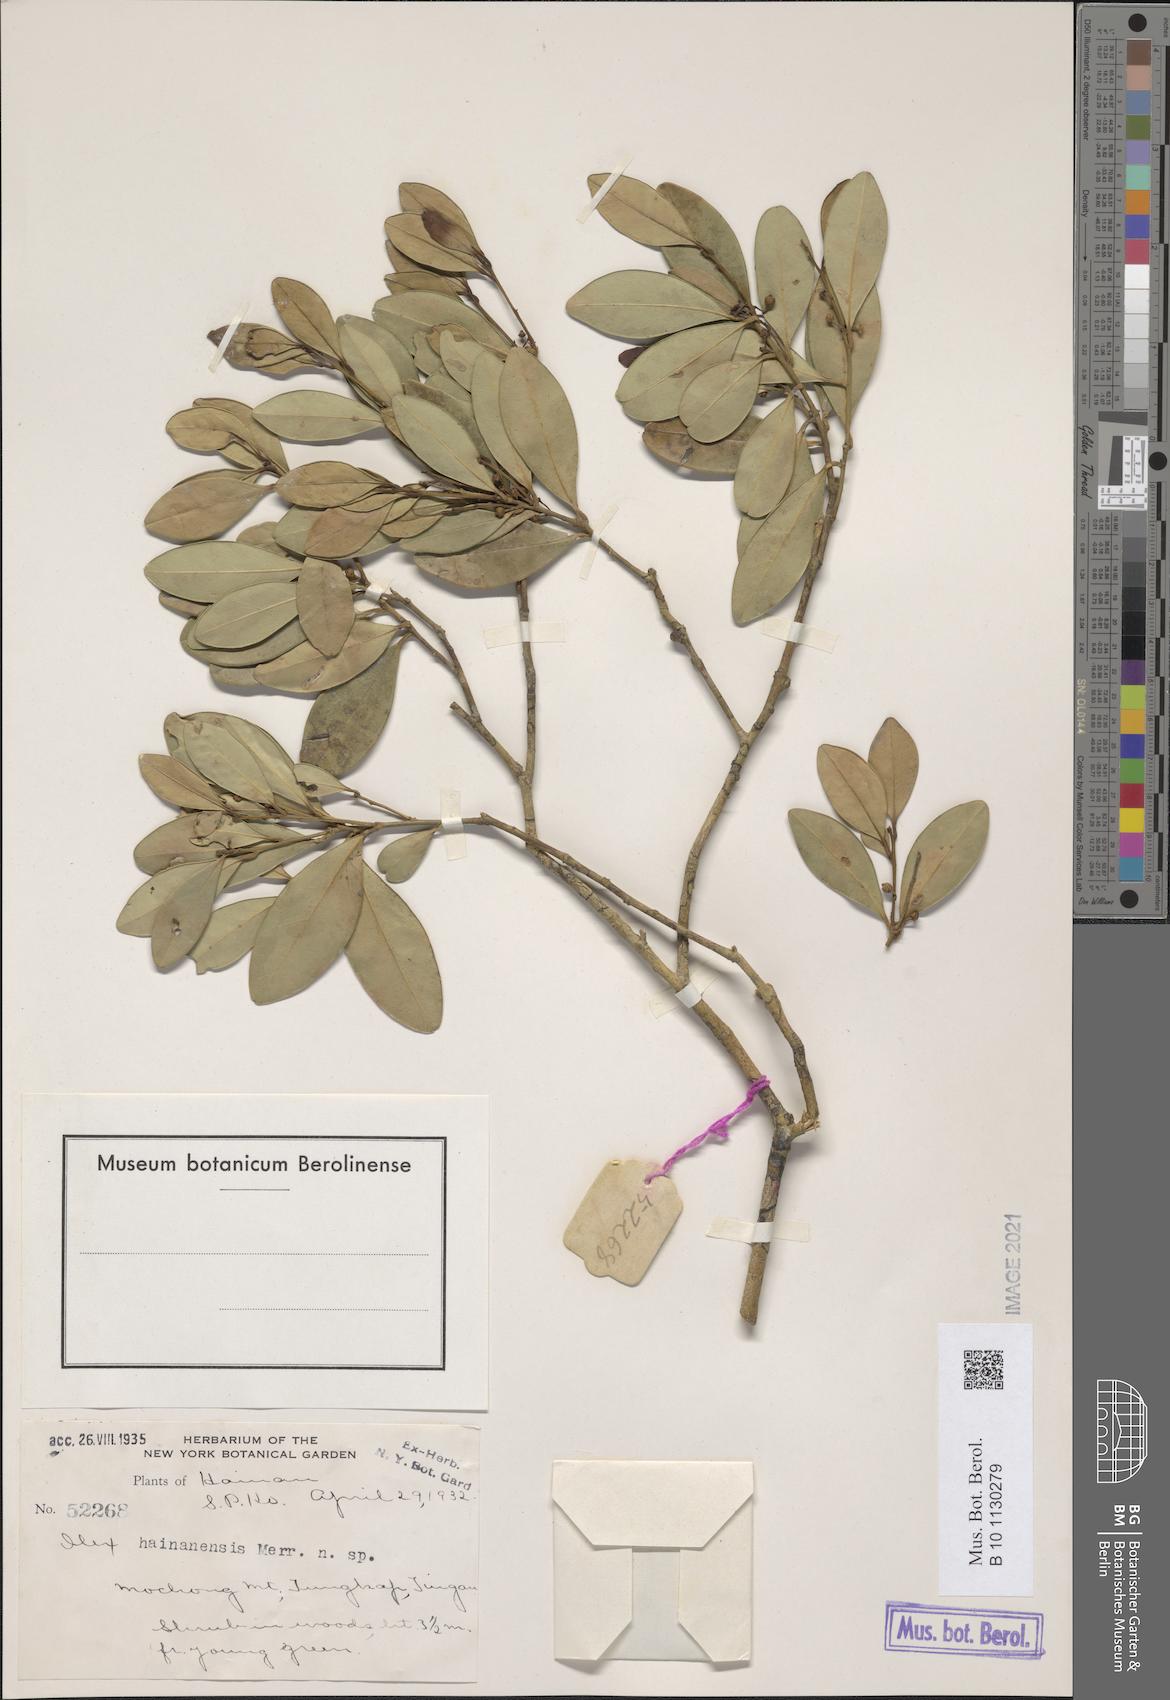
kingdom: Plantae
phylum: Tracheophyta
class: Magnoliopsida
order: Aquifoliales
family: Aquifoliaceae
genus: Ilex
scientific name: Ilex hainanensis
